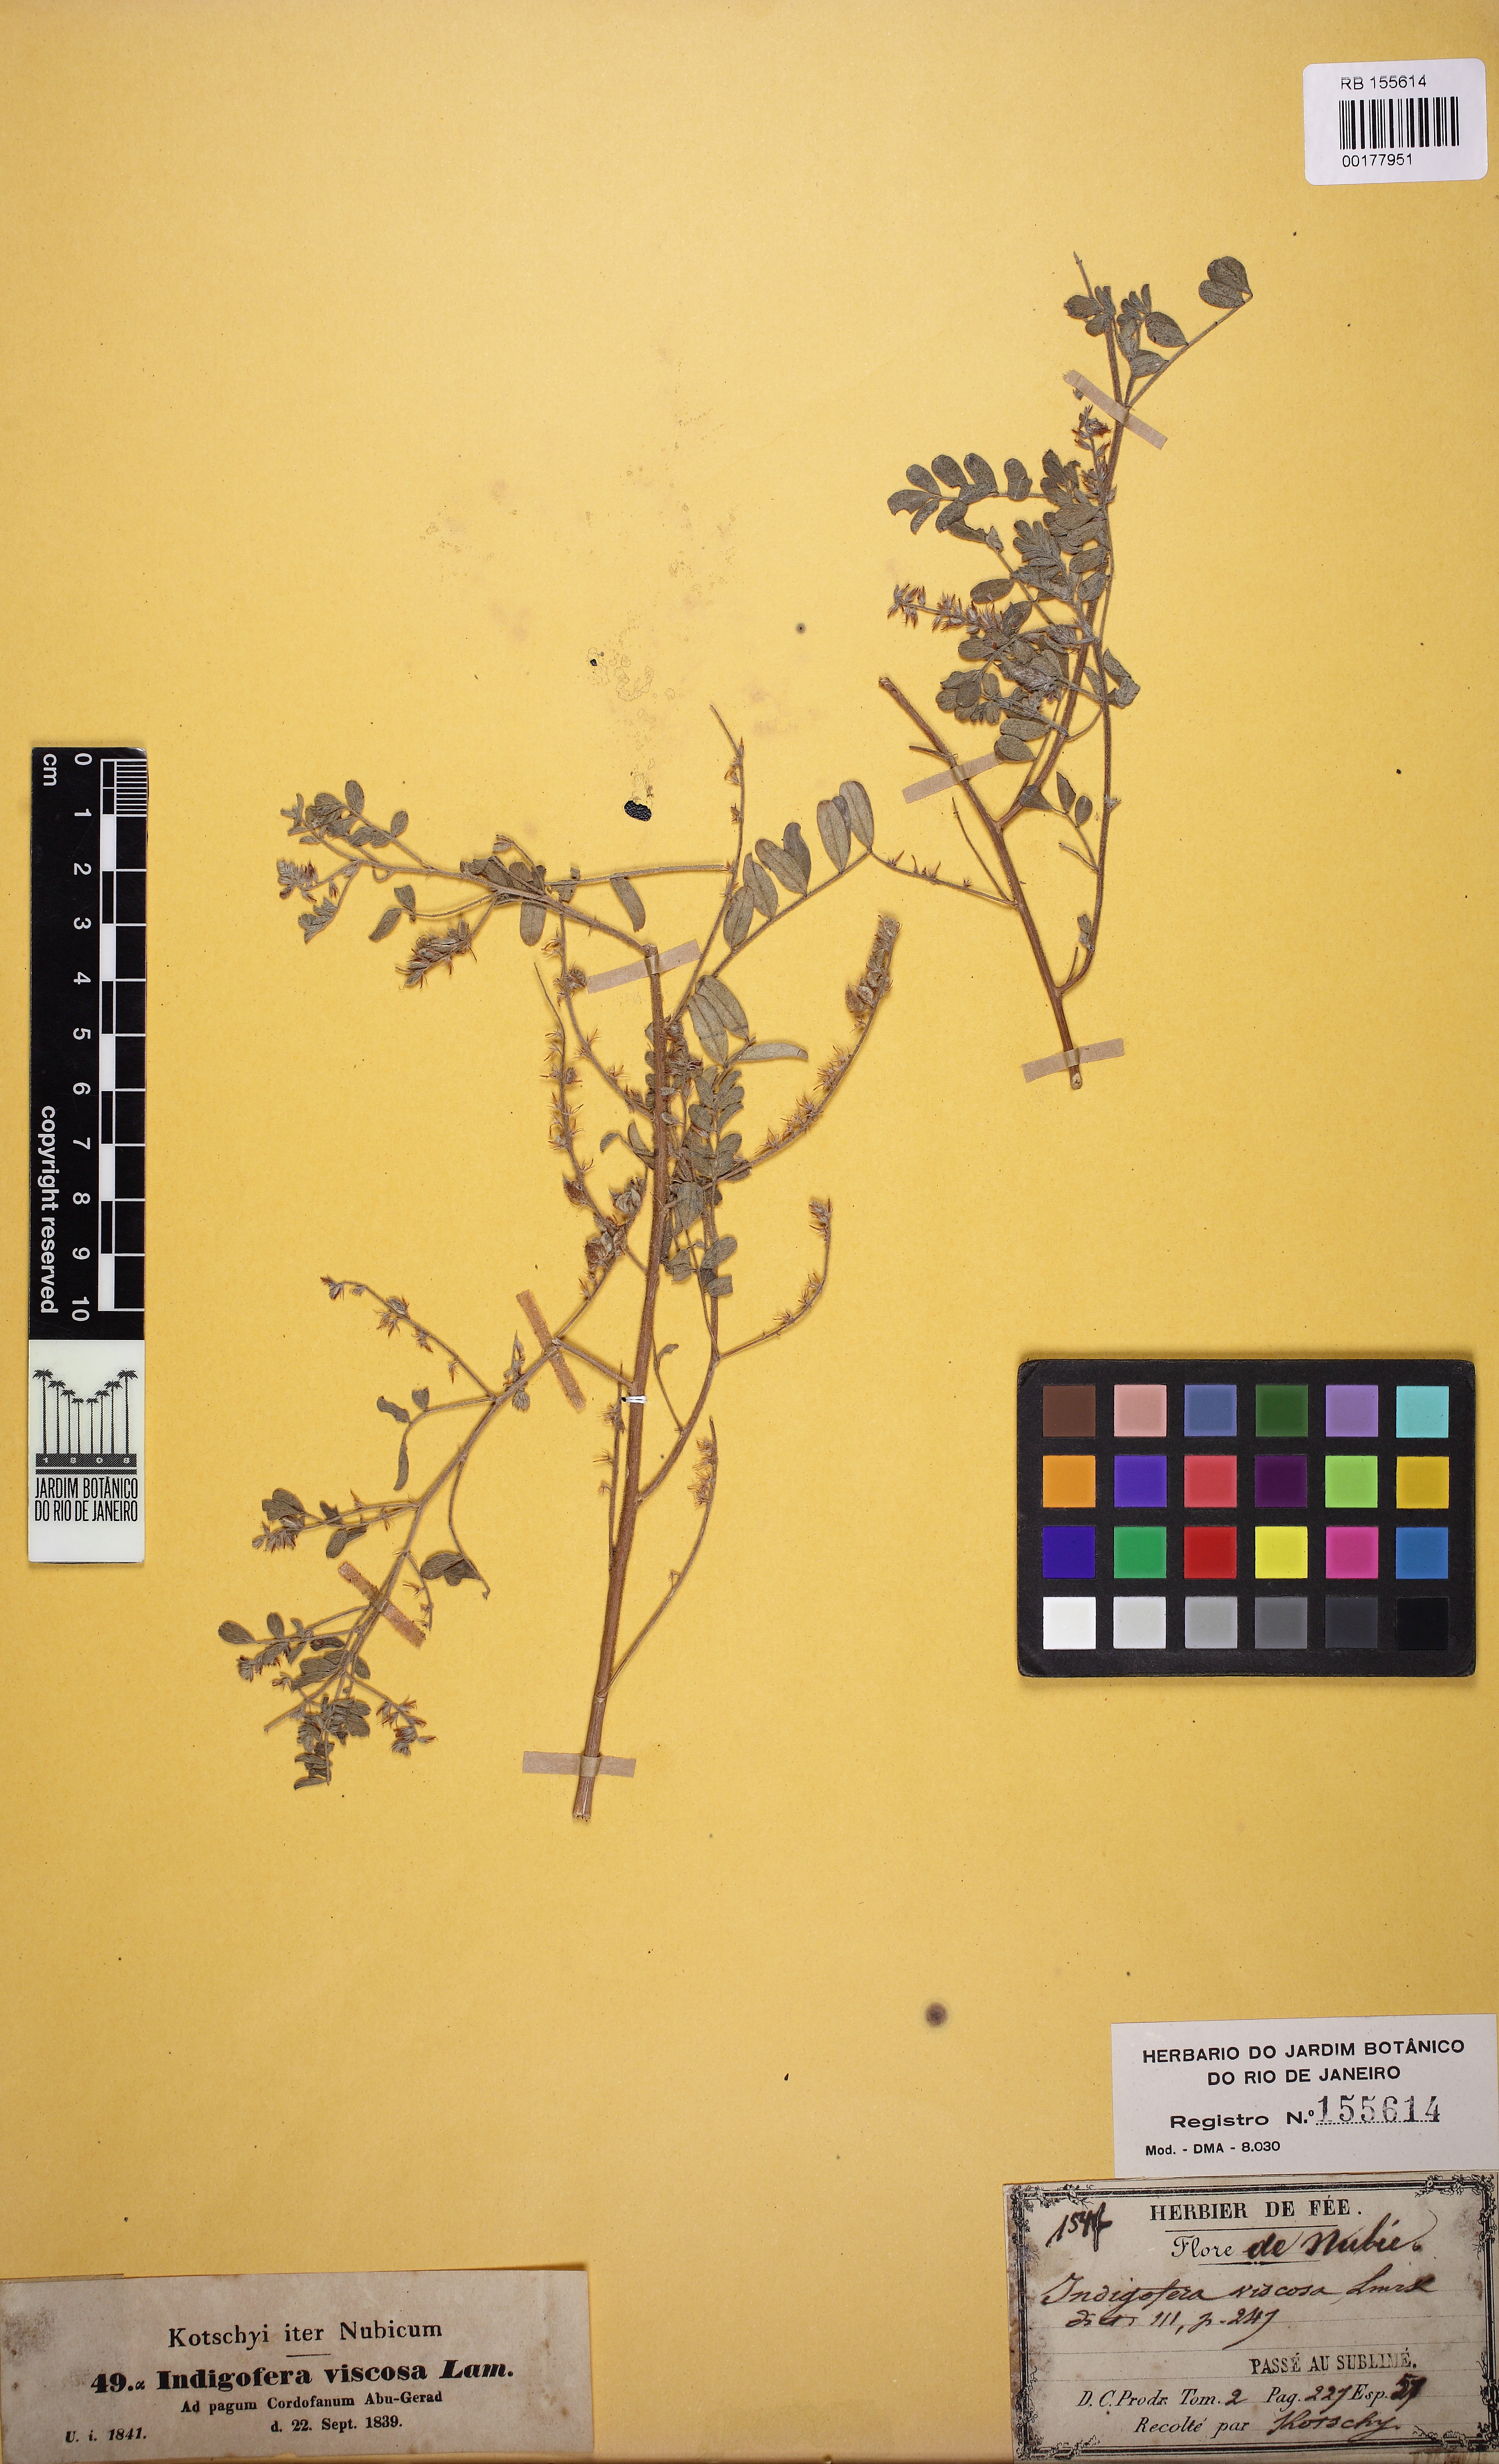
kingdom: Plantae
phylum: Tracheophyta
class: Magnoliopsida
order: Fabales
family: Fabaceae
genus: Indigofera
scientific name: Indigofera colutea
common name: Rusty indigo
